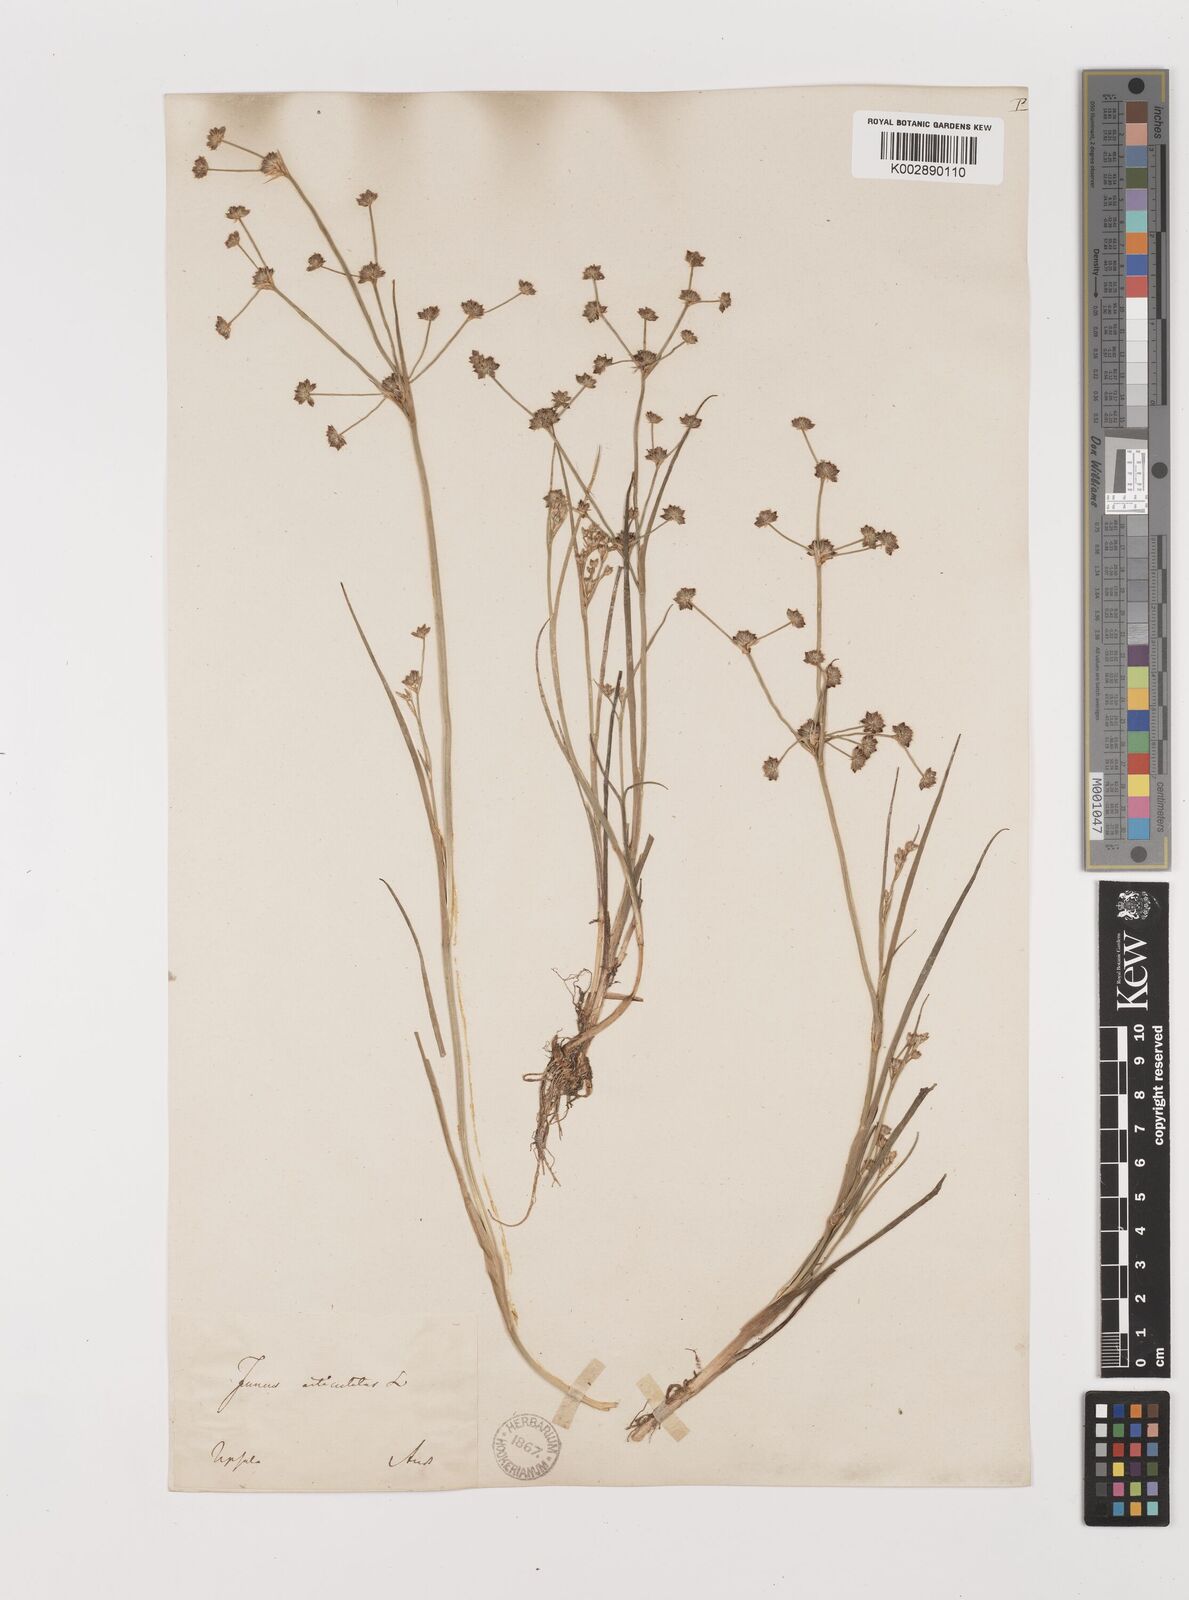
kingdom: Plantae
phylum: Tracheophyta
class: Liliopsida
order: Poales
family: Juncaceae
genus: Juncus
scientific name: Juncus articulatus
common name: Jointed rush
